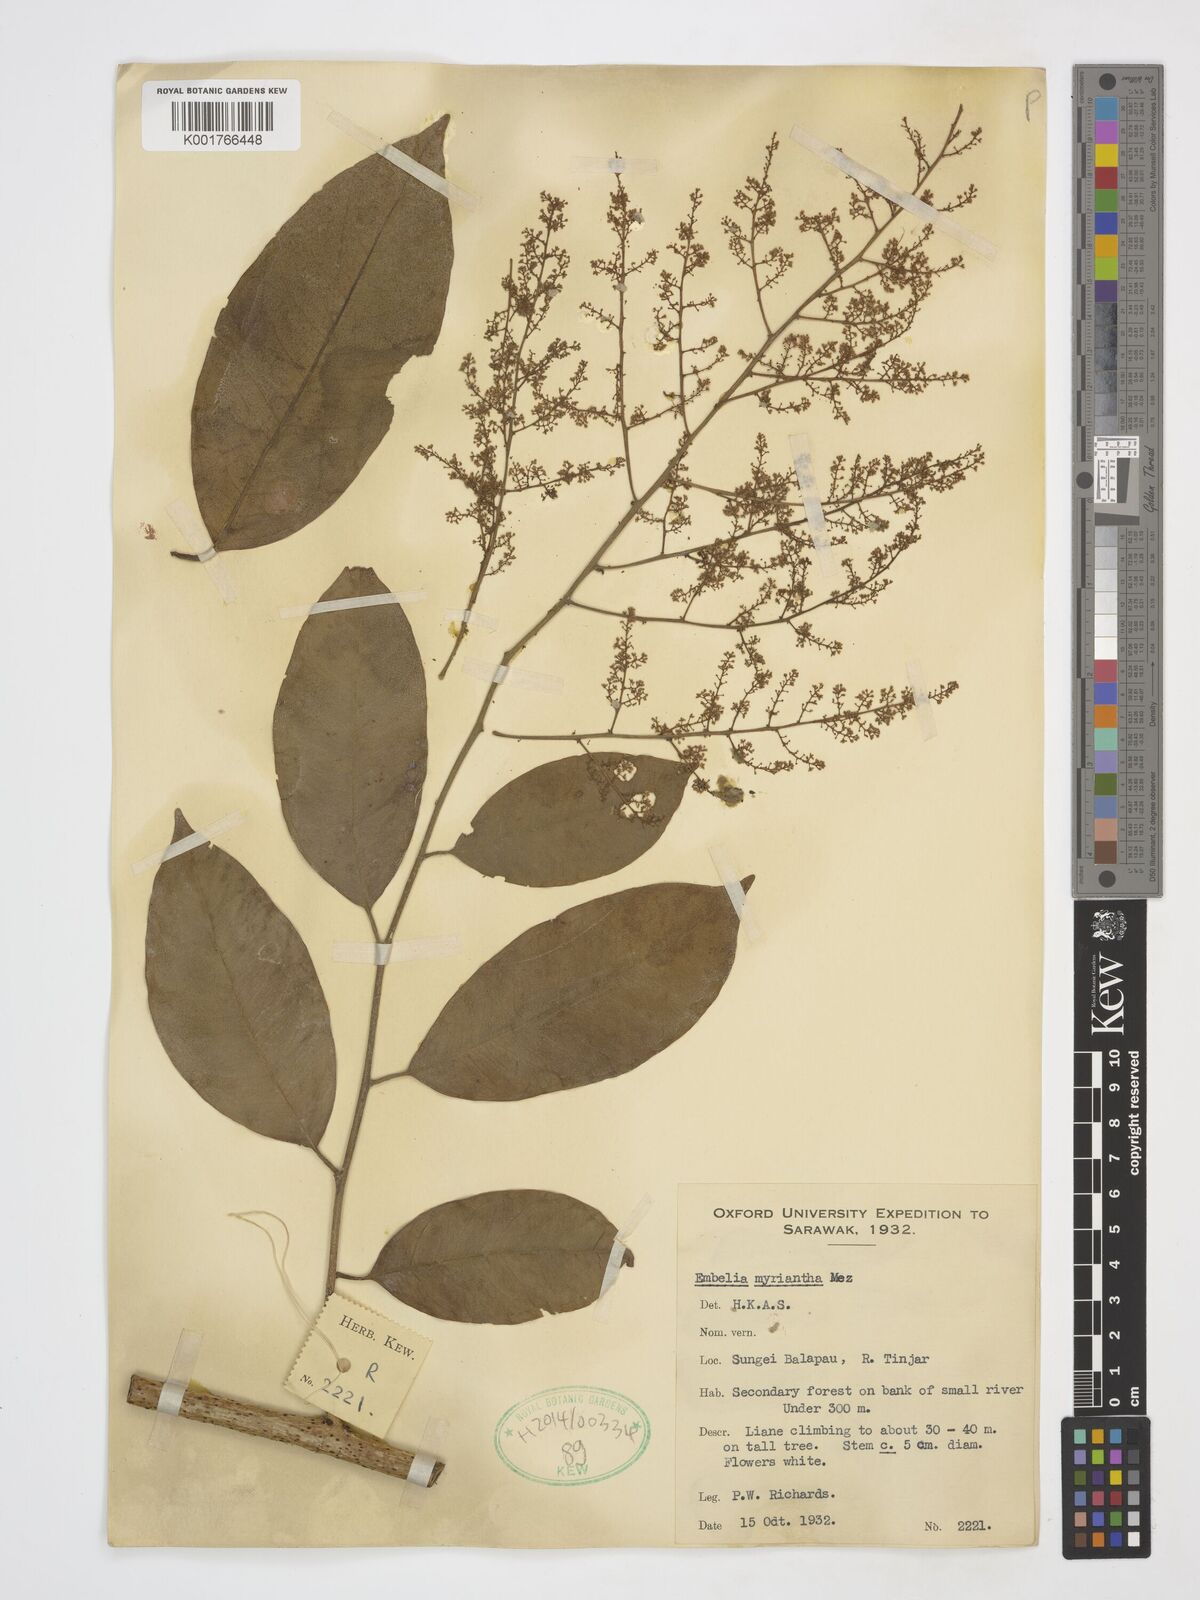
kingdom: Plantae
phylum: Tracheophyta
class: Magnoliopsida
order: Ericales
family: Primulaceae
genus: Embelia
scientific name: Embelia myriantha
